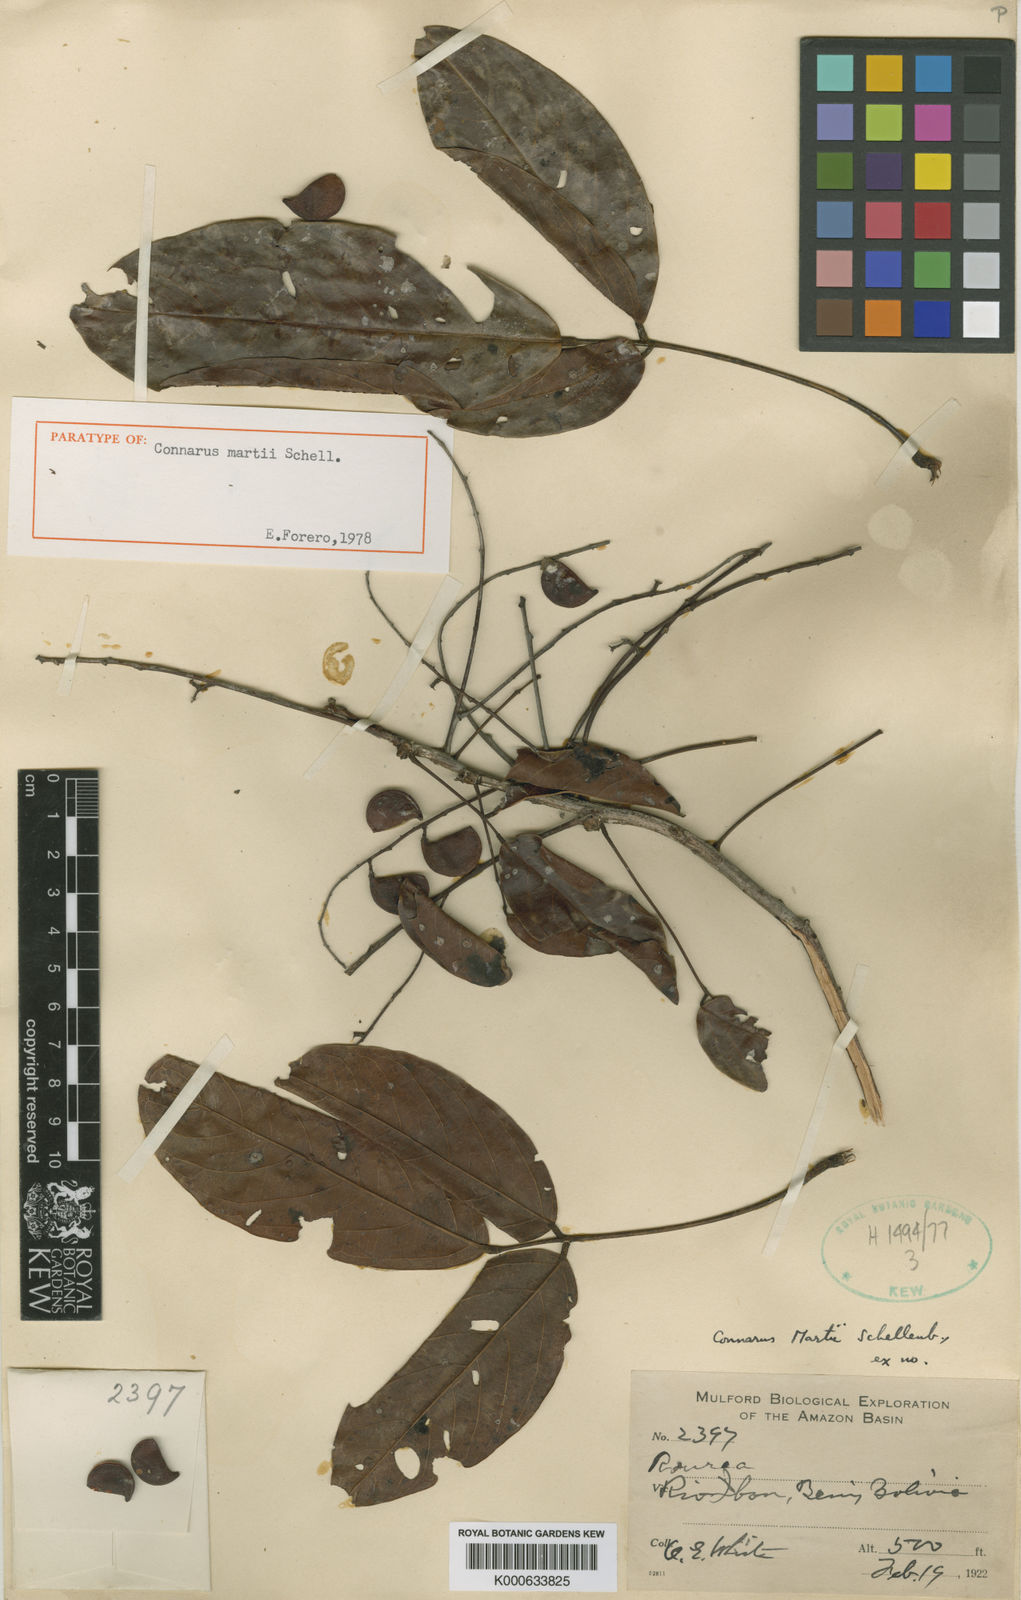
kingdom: Plantae
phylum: Tracheophyta
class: Magnoliopsida
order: Oxalidales
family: Connaraceae
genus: Connarus
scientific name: Connarus ruber
